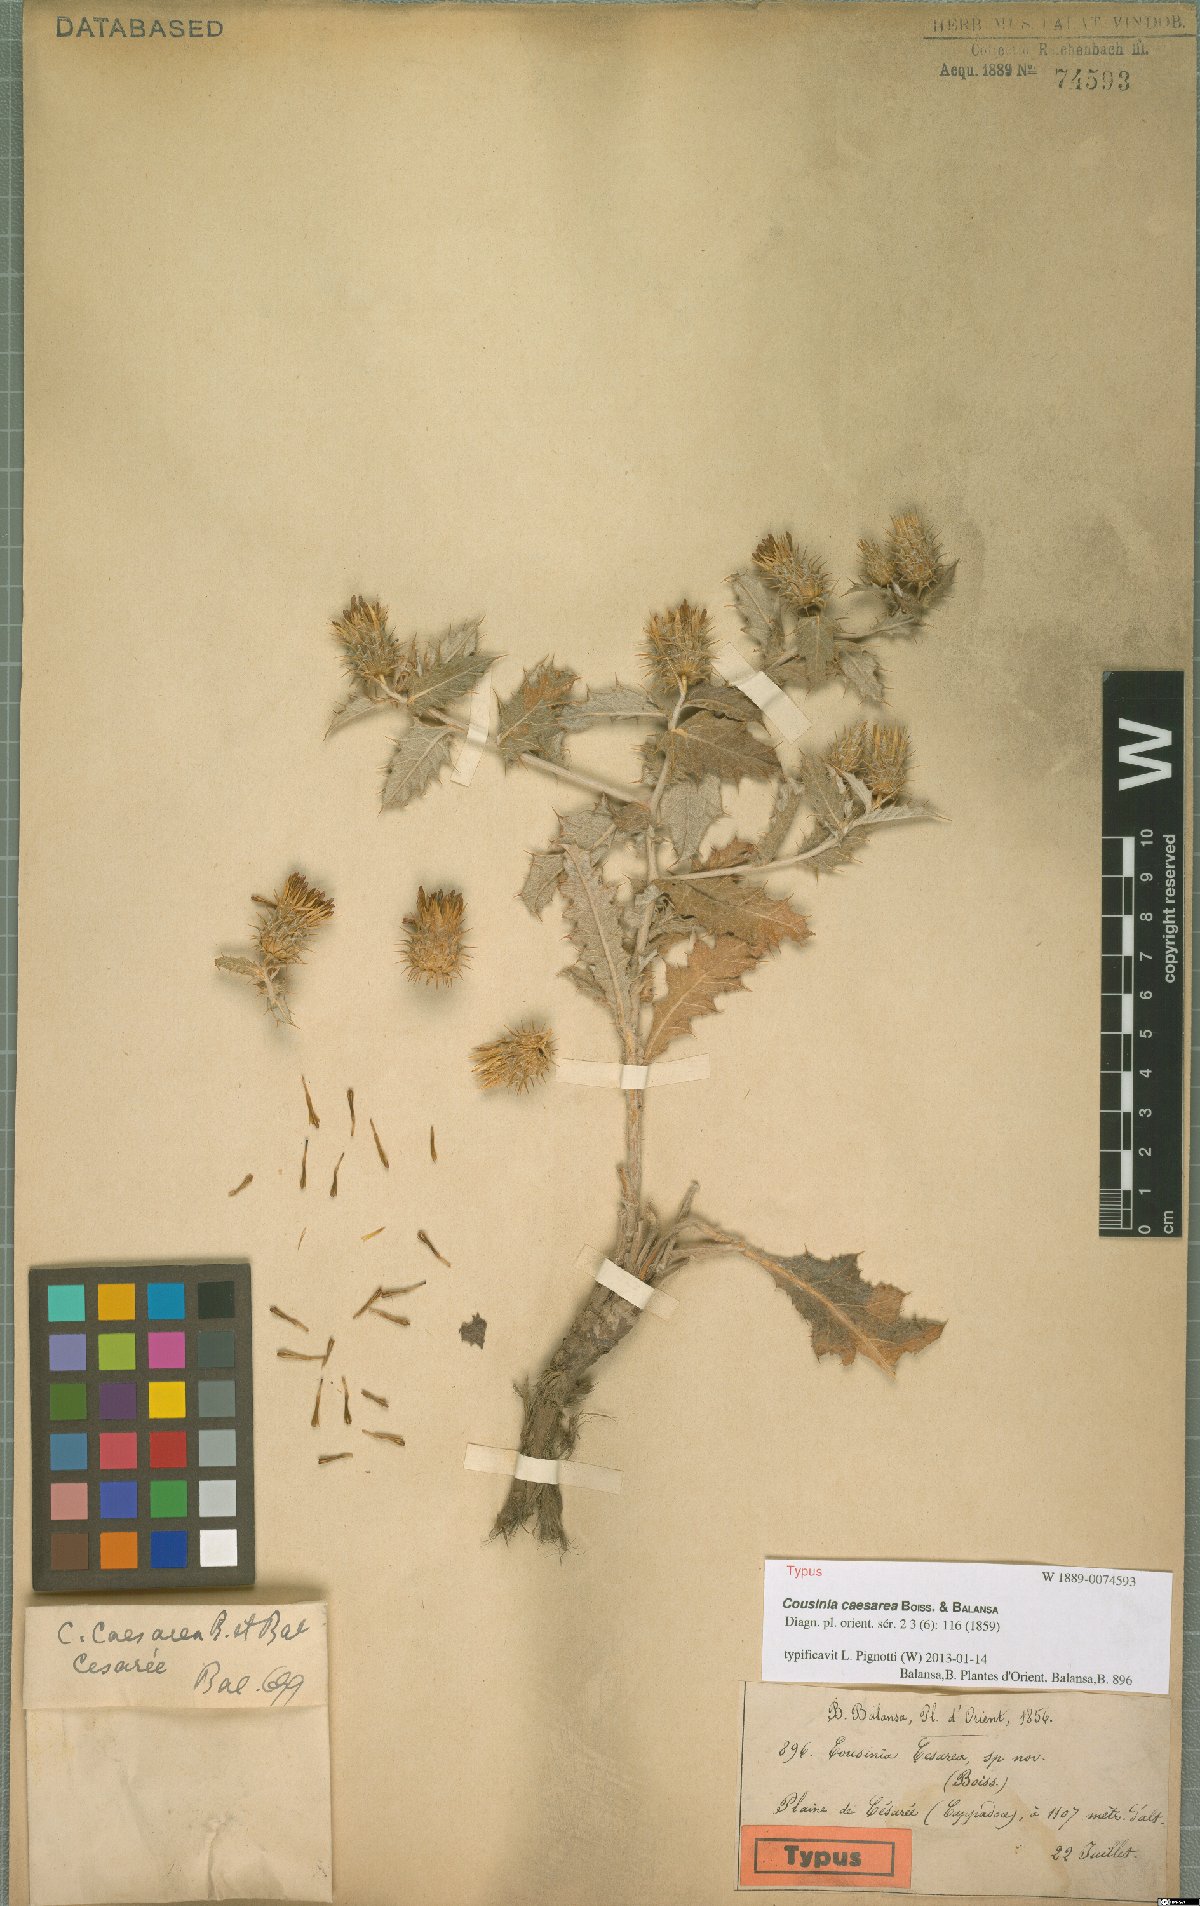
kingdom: Plantae
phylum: Tracheophyta
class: Magnoliopsida
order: Asterales
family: Asteraceae
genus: Cousinia
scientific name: Cousinia caesarea
